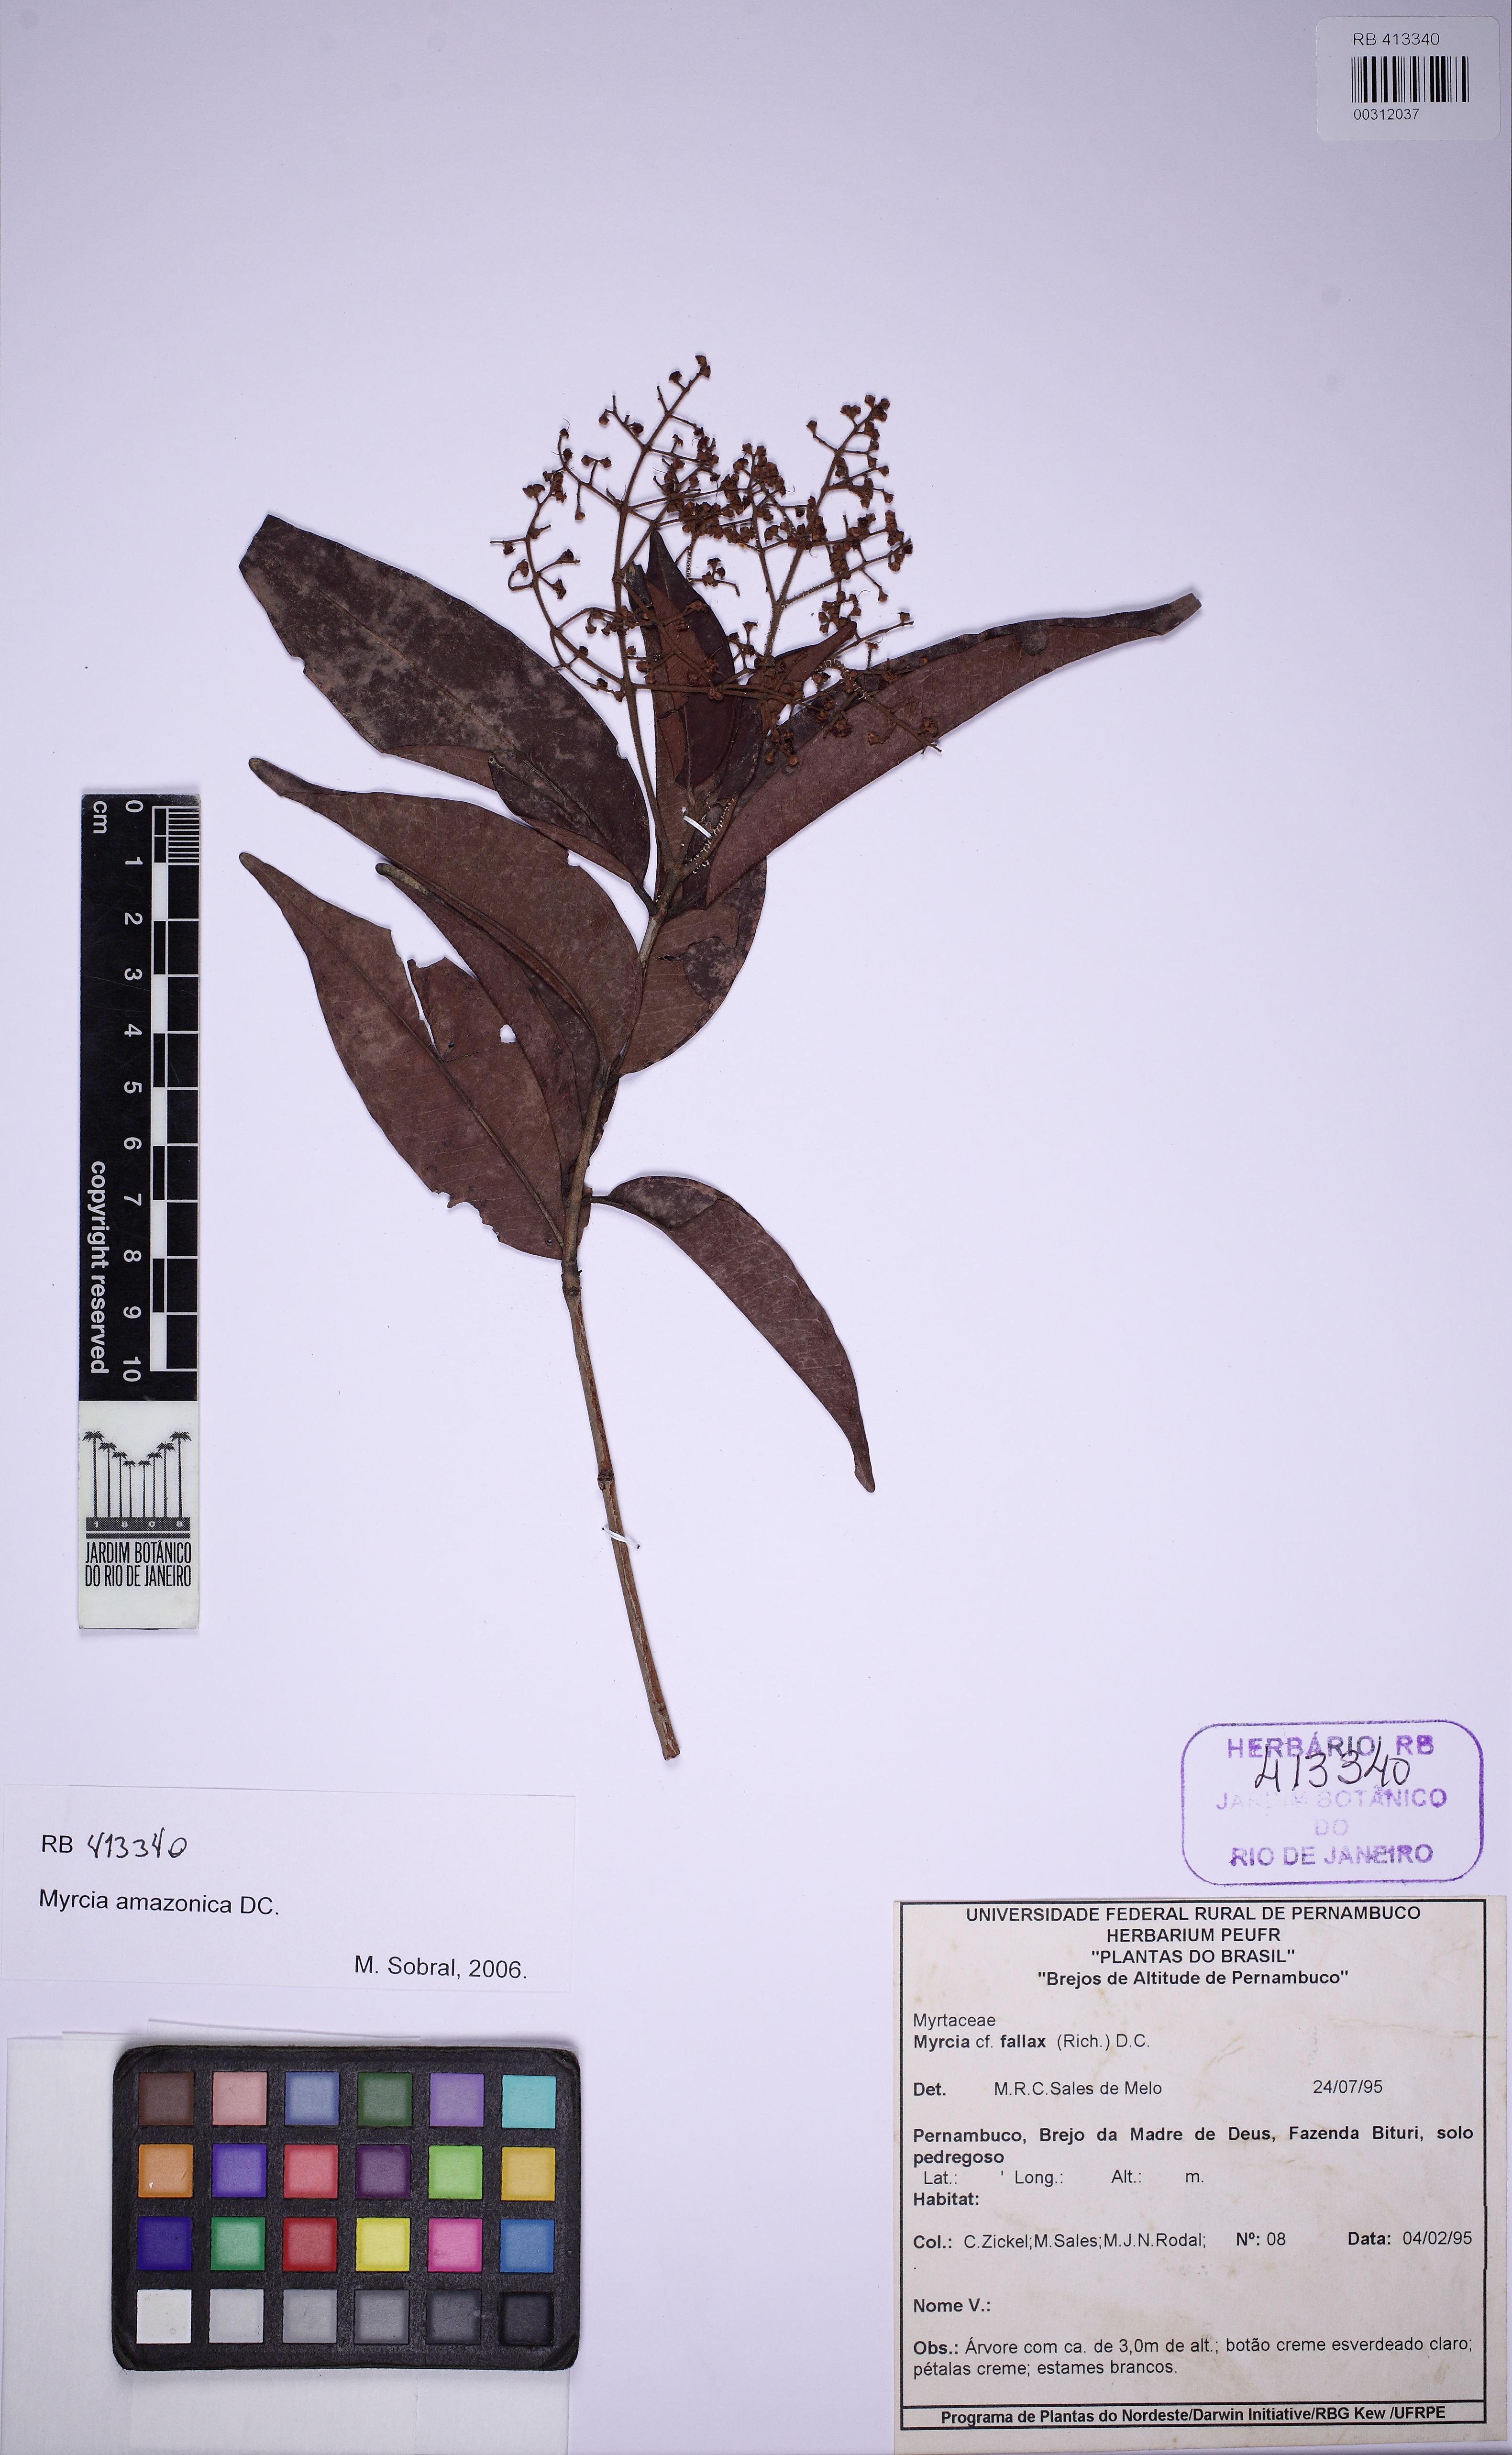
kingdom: Plantae
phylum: Tracheophyta
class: Magnoliopsida
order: Myrtales
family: Myrtaceae
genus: Myrcia
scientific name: Myrcia amazonica
